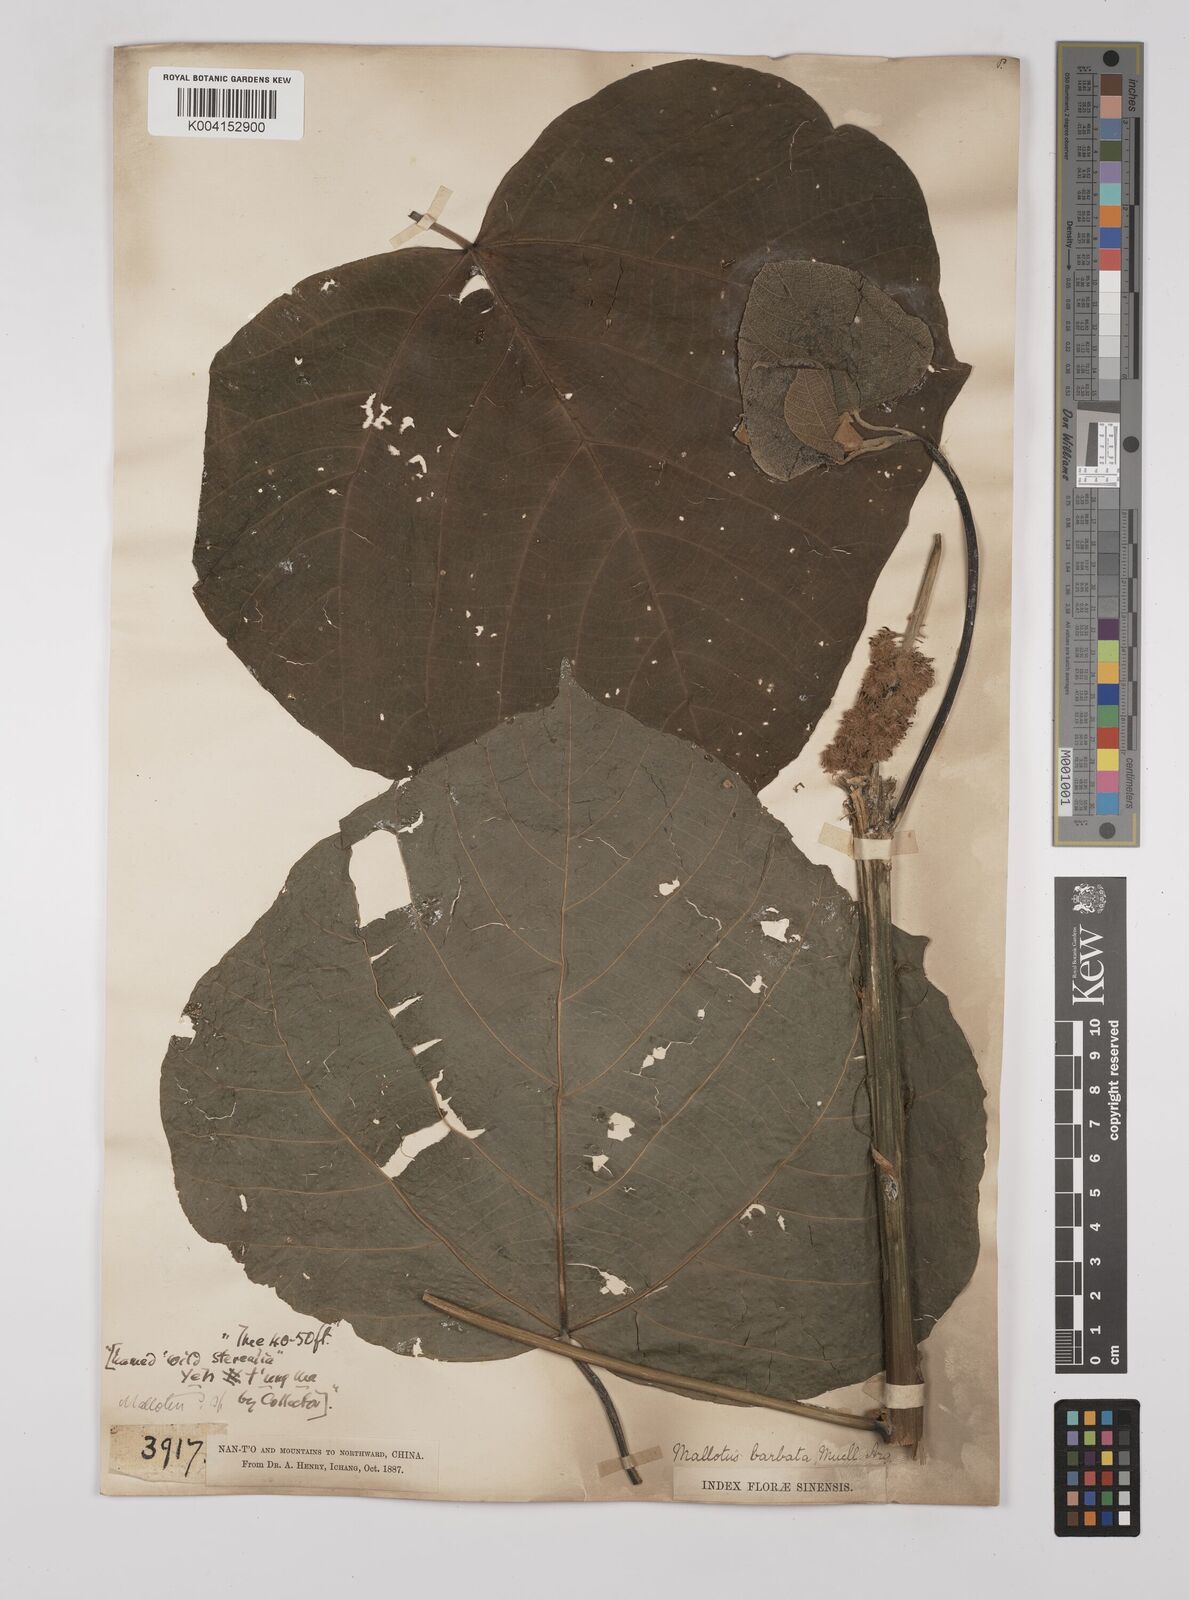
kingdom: Plantae
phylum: Tracheophyta
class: Magnoliopsida
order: Malpighiales
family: Euphorbiaceae
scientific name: Euphorbiaceae
